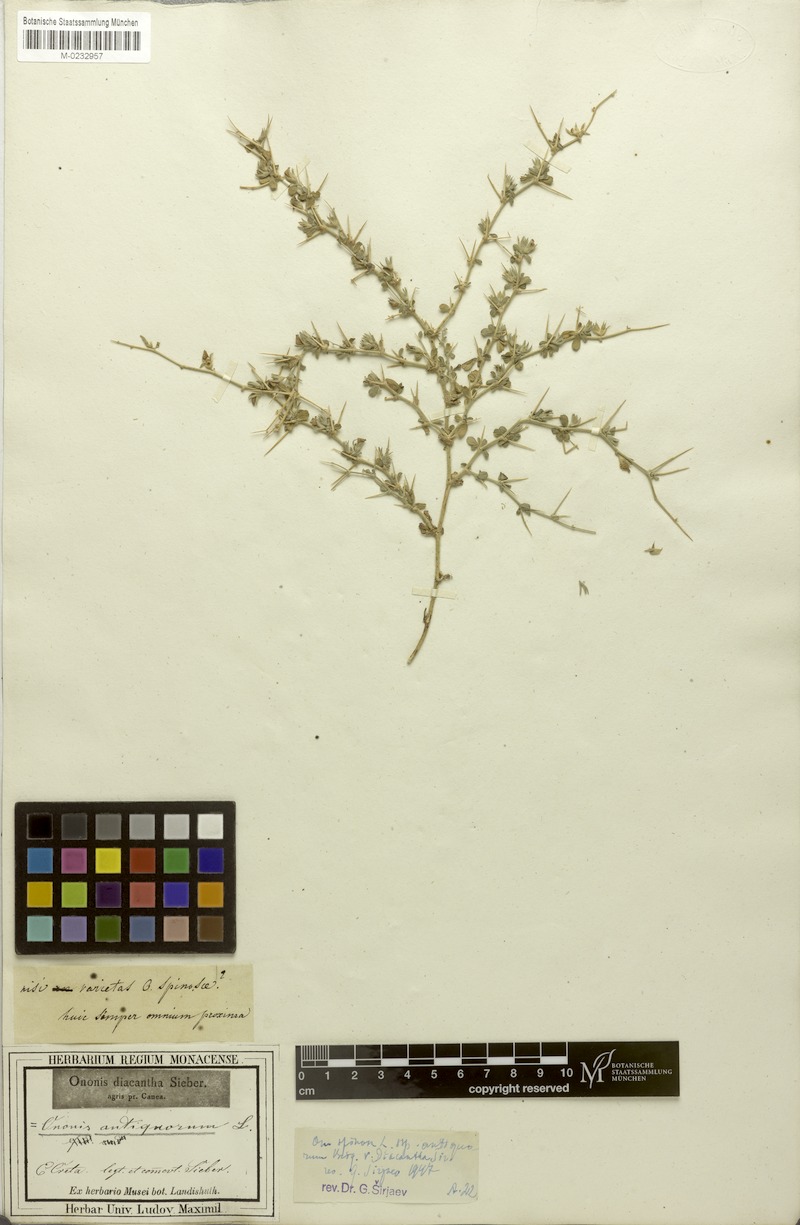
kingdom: Plantae
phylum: Tracheophyta
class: Magnoliopsida
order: Fabales
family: Fabaceae
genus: Ononis
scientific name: Ononis spinosa
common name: Spiny restharrow
